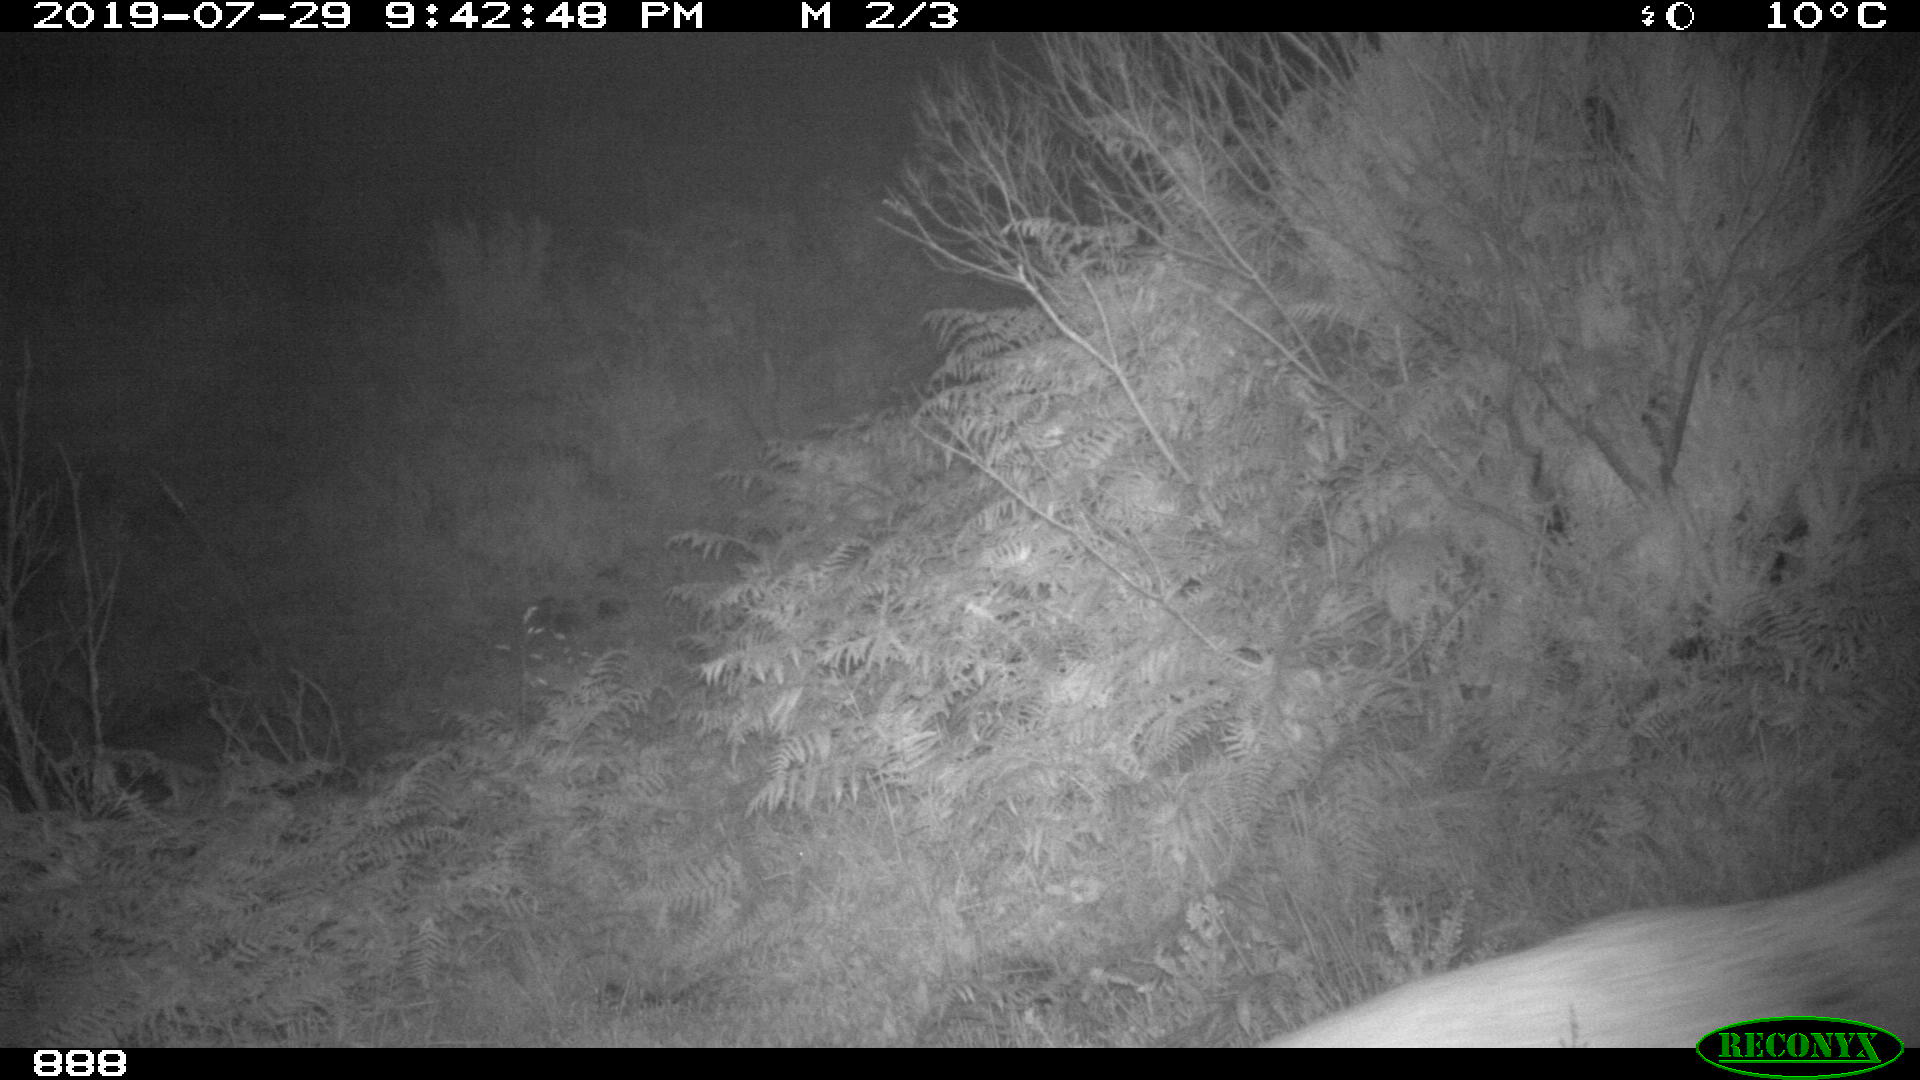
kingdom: Animalia
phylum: Chordata
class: Mammalia
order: Artiodactyla
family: Cervidae
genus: Capreolus
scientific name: Capreolus capreolus
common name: Western roe deer
